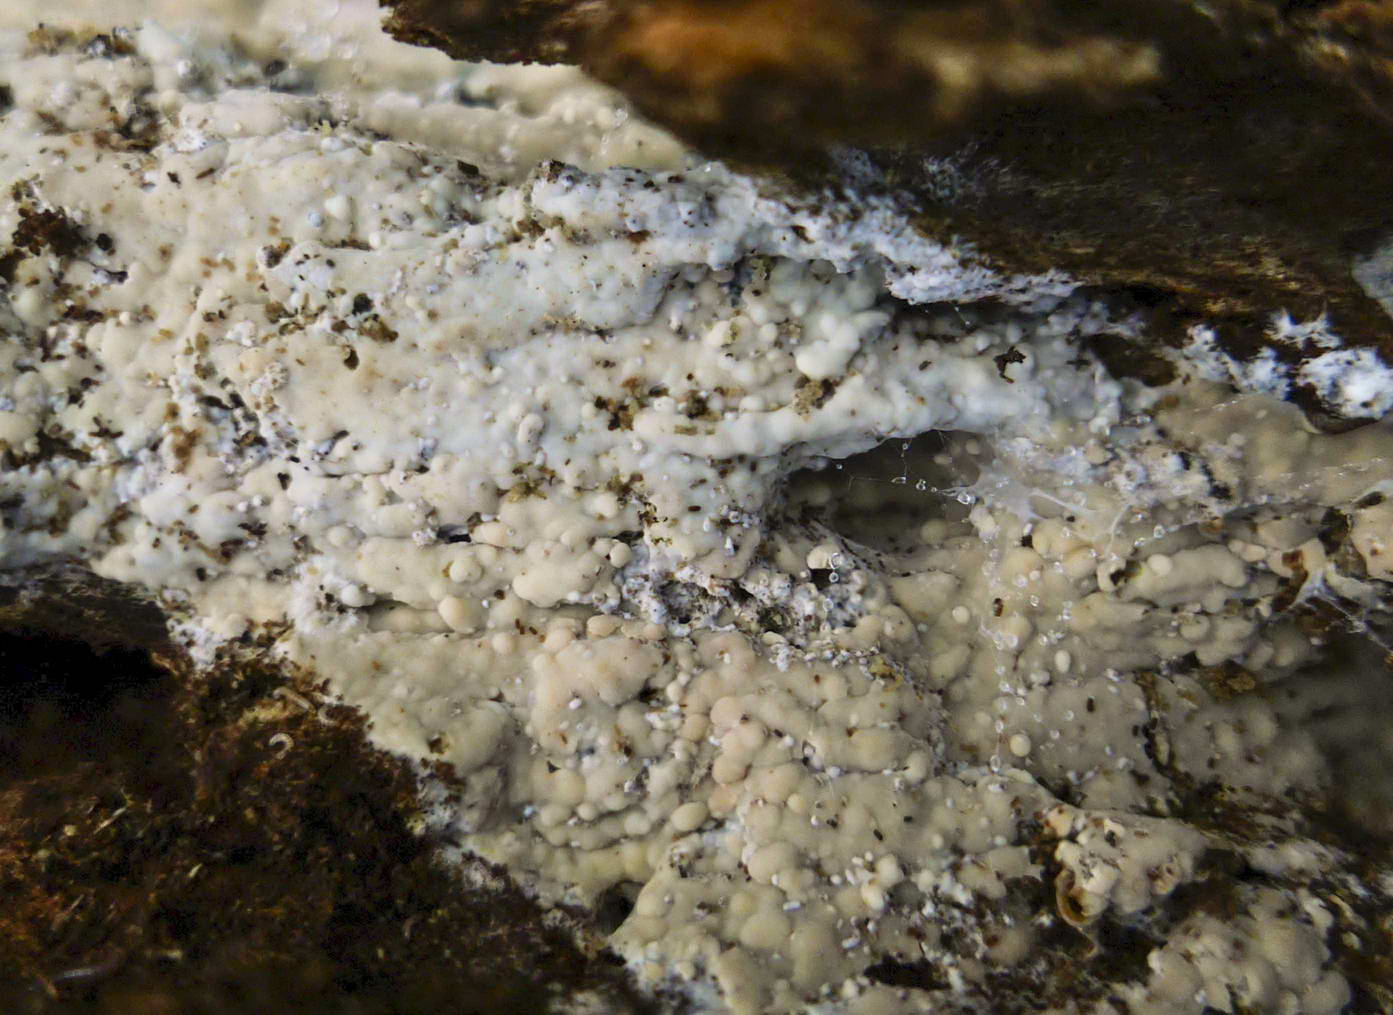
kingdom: Fungi
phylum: Basidiomycota
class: Agaricomycetes
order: Russulales
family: Peniophoraceae
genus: Gloiothele
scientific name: Gloiothele lactescens
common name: bitter olieskind
